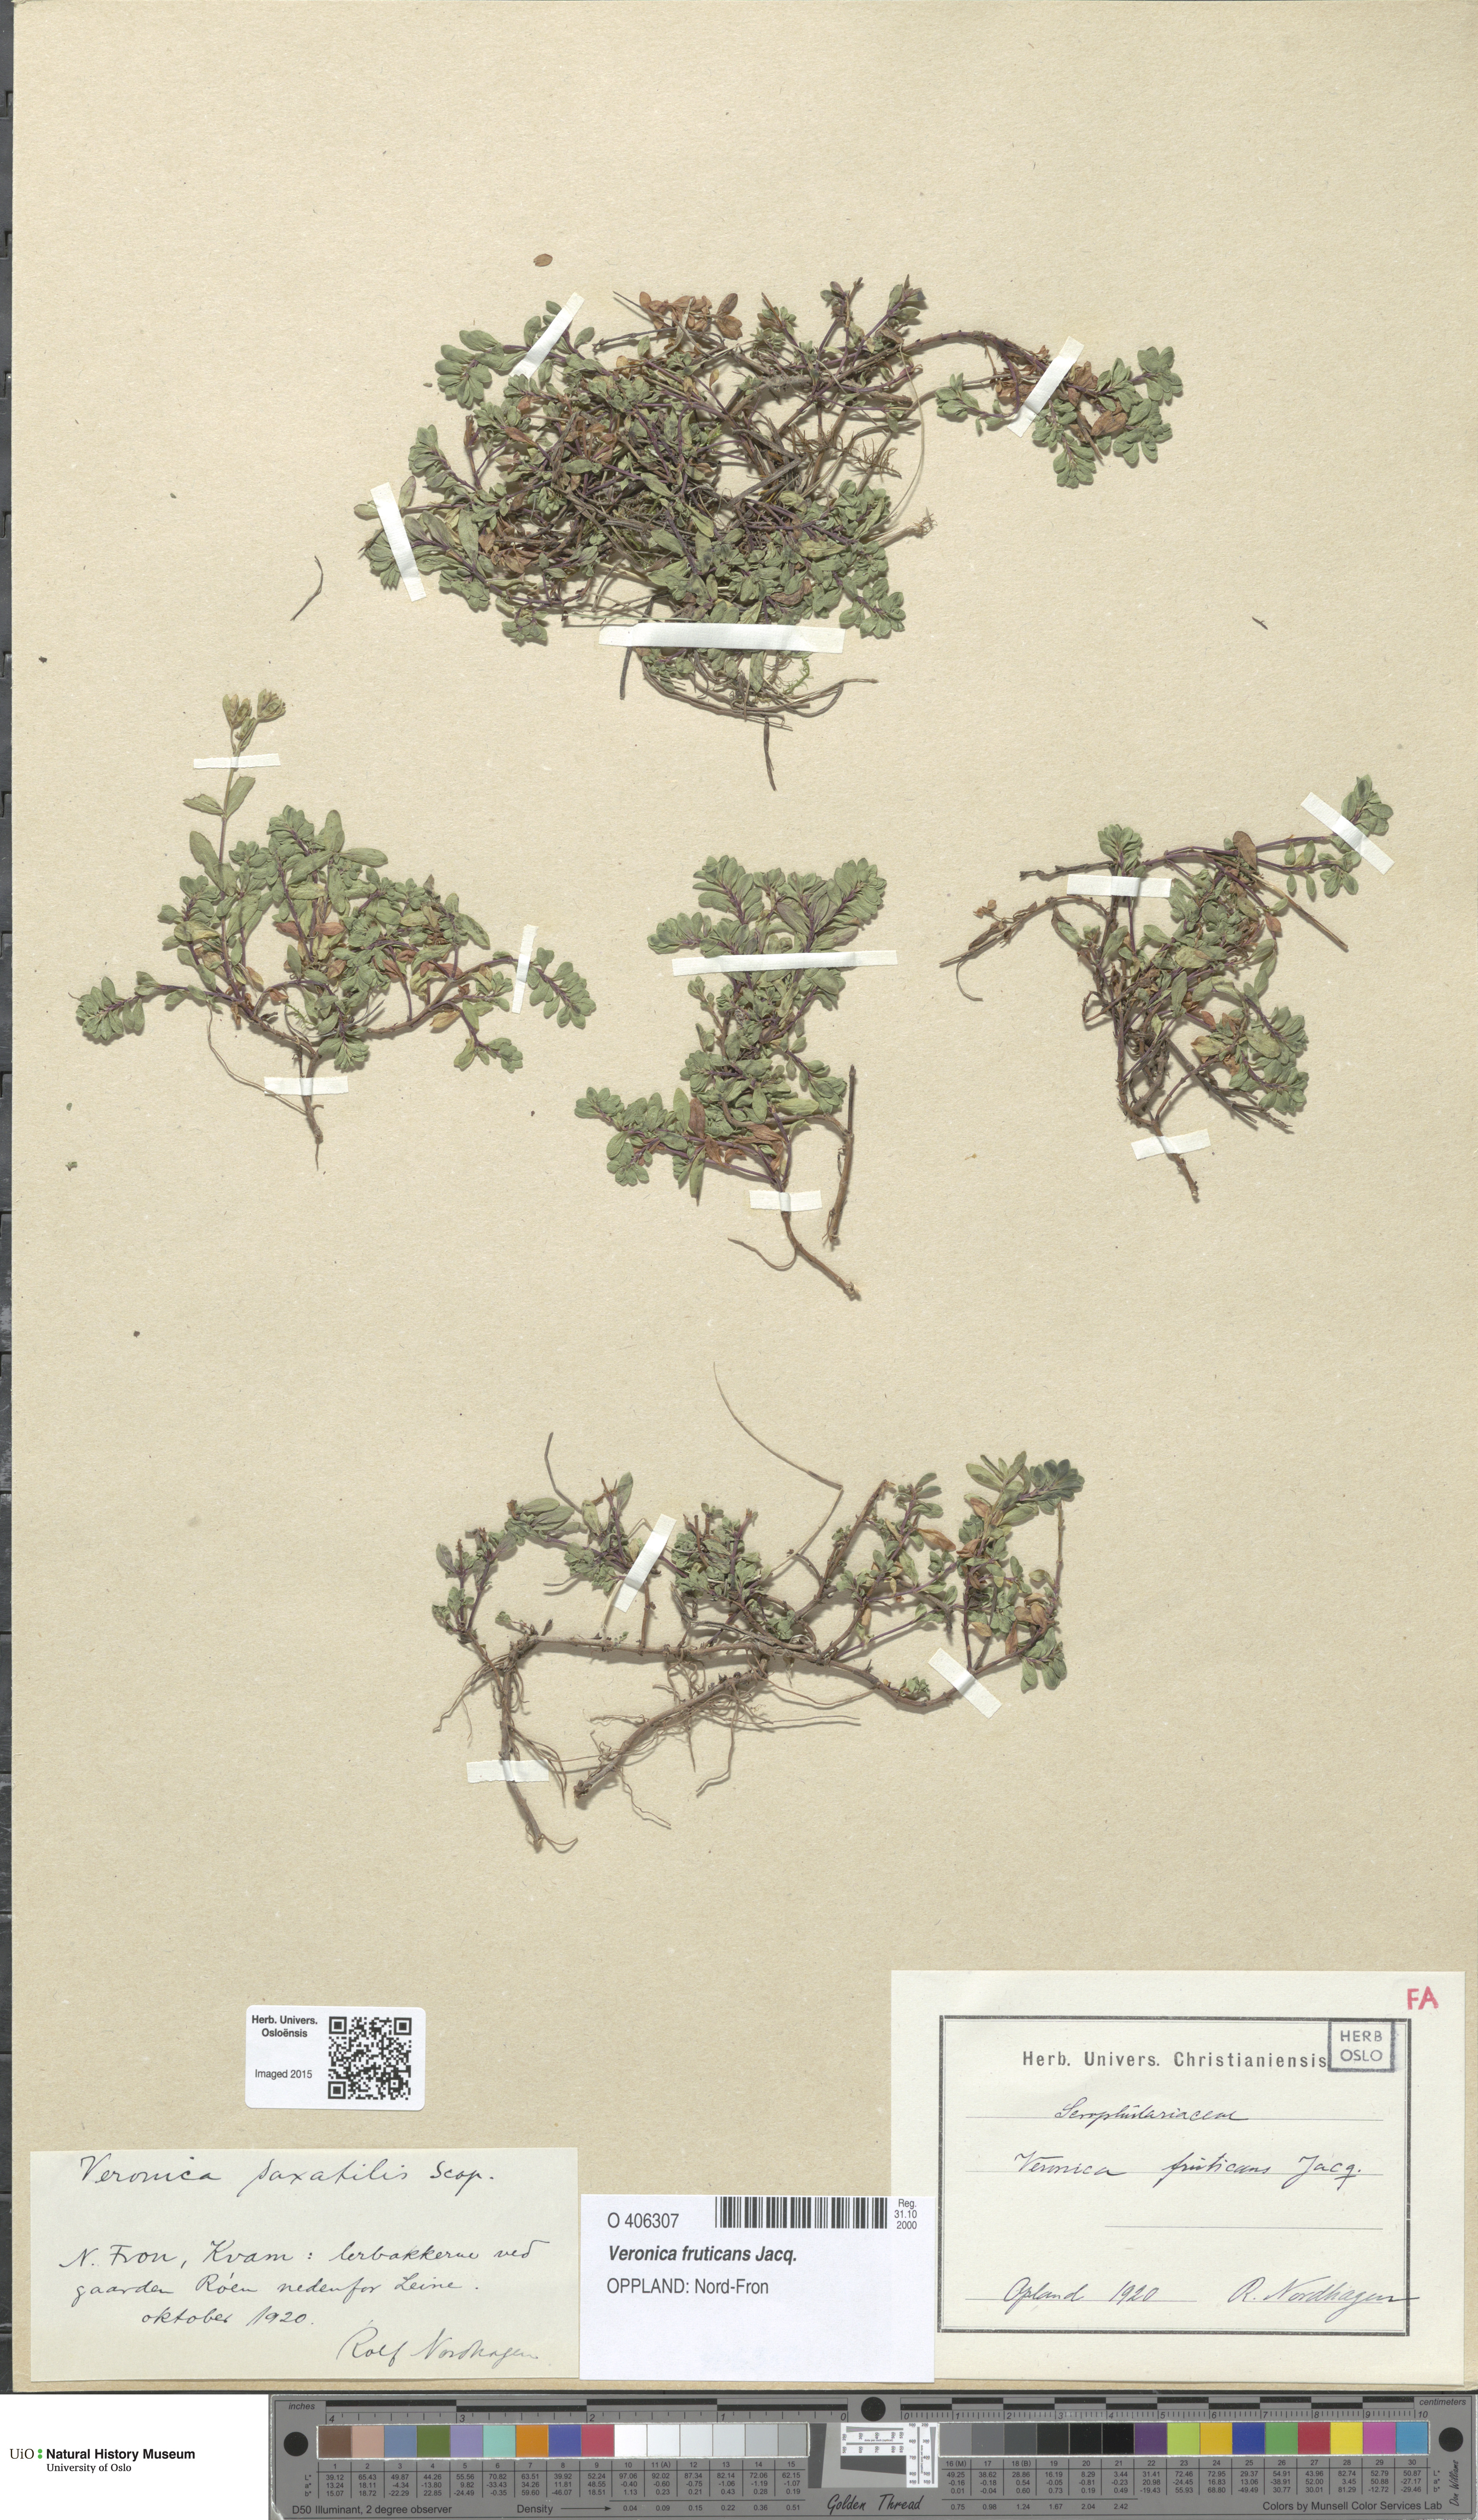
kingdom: Plantae
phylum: Tracheophyta
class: Magnoliopsida
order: Lamiales
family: Plantaginaceae
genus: Veronica
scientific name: Veronica fruticans
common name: Rock speedwell
